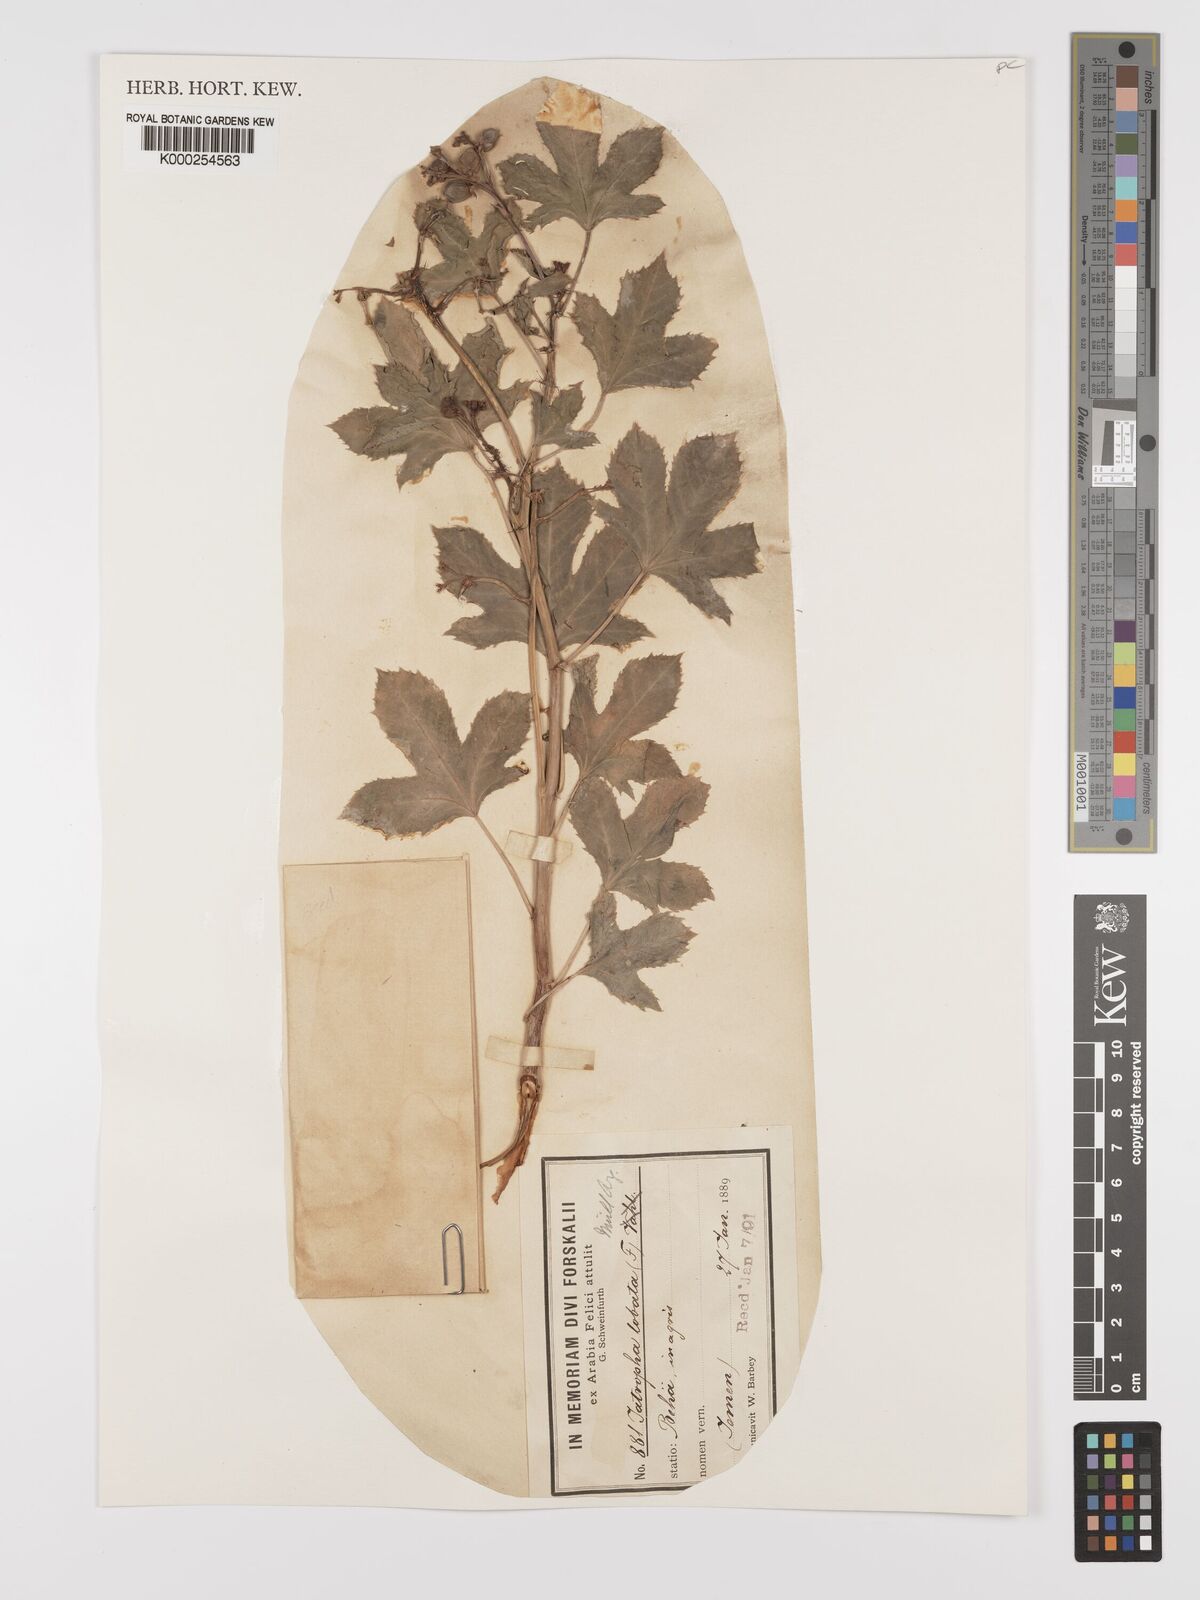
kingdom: Plantae
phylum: Tracheophyta
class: Magnoliopsida
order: Malpighiales
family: Euphorbiaceae
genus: Jatropha
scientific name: Jatropha glauca
